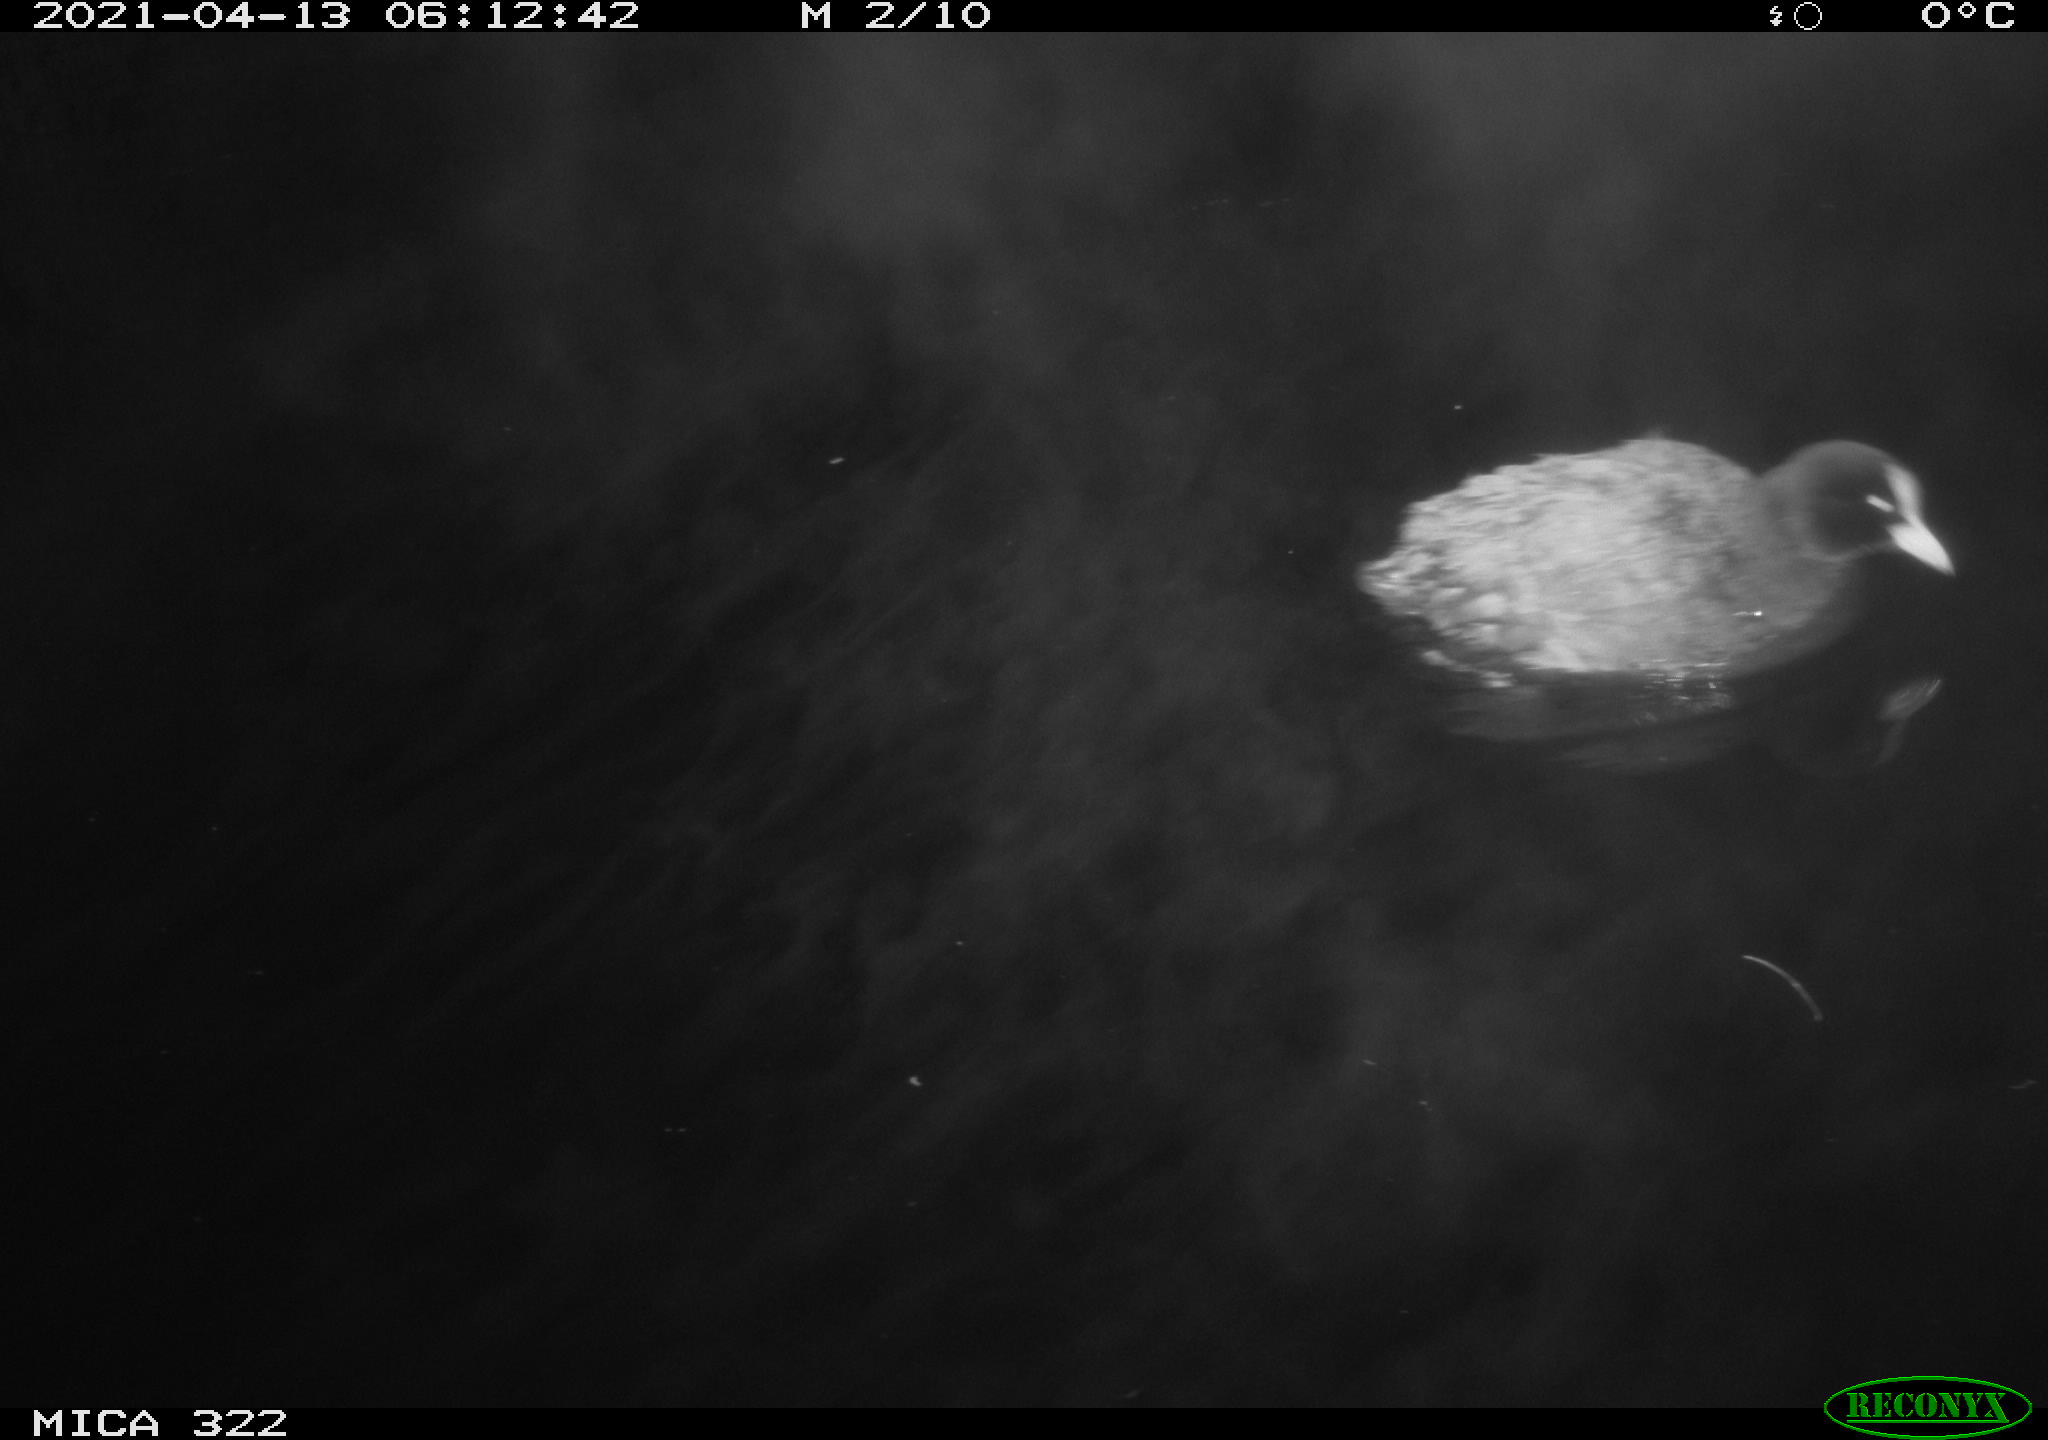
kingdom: Animalia
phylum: Chordata
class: Aves
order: Gruiformes
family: Rallidae
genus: Fulica
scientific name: Fulica atra
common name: Eurasian coot
